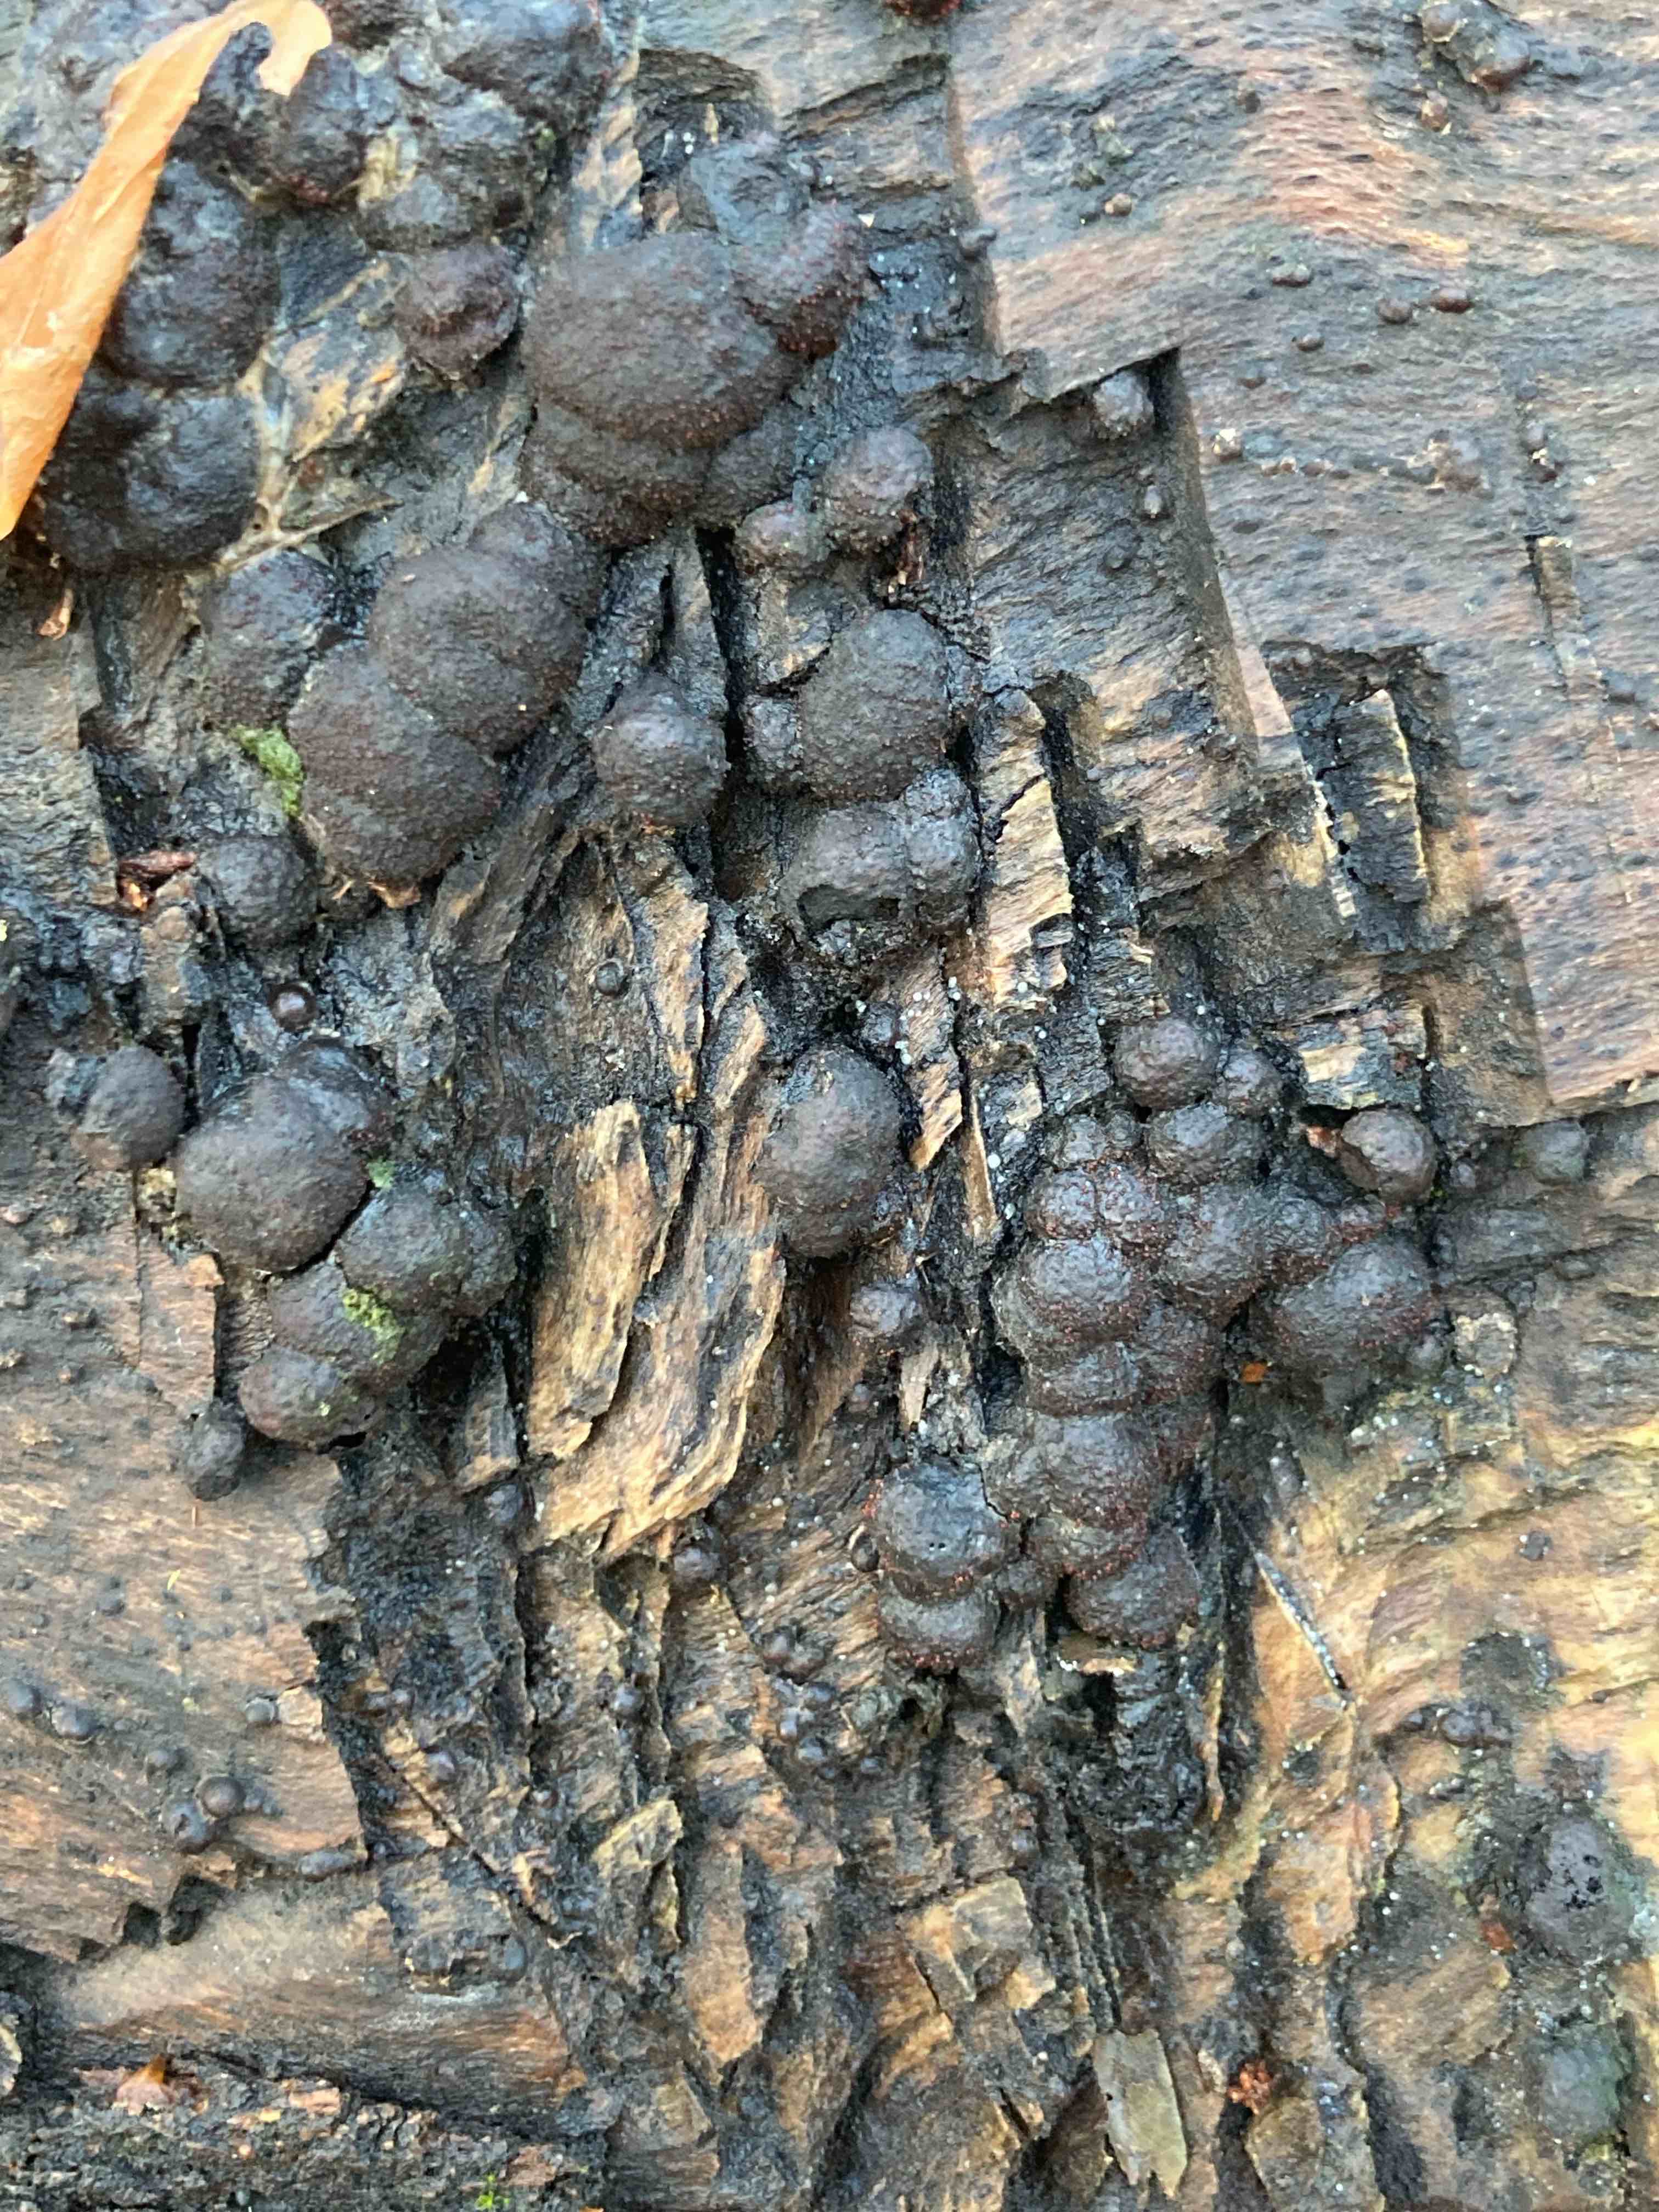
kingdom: Fungi
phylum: Ascomycota
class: Sordariomycetes
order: Xylariales
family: Hypoxylaceae
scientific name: Hypoxylaceae
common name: kulbærfamilien
